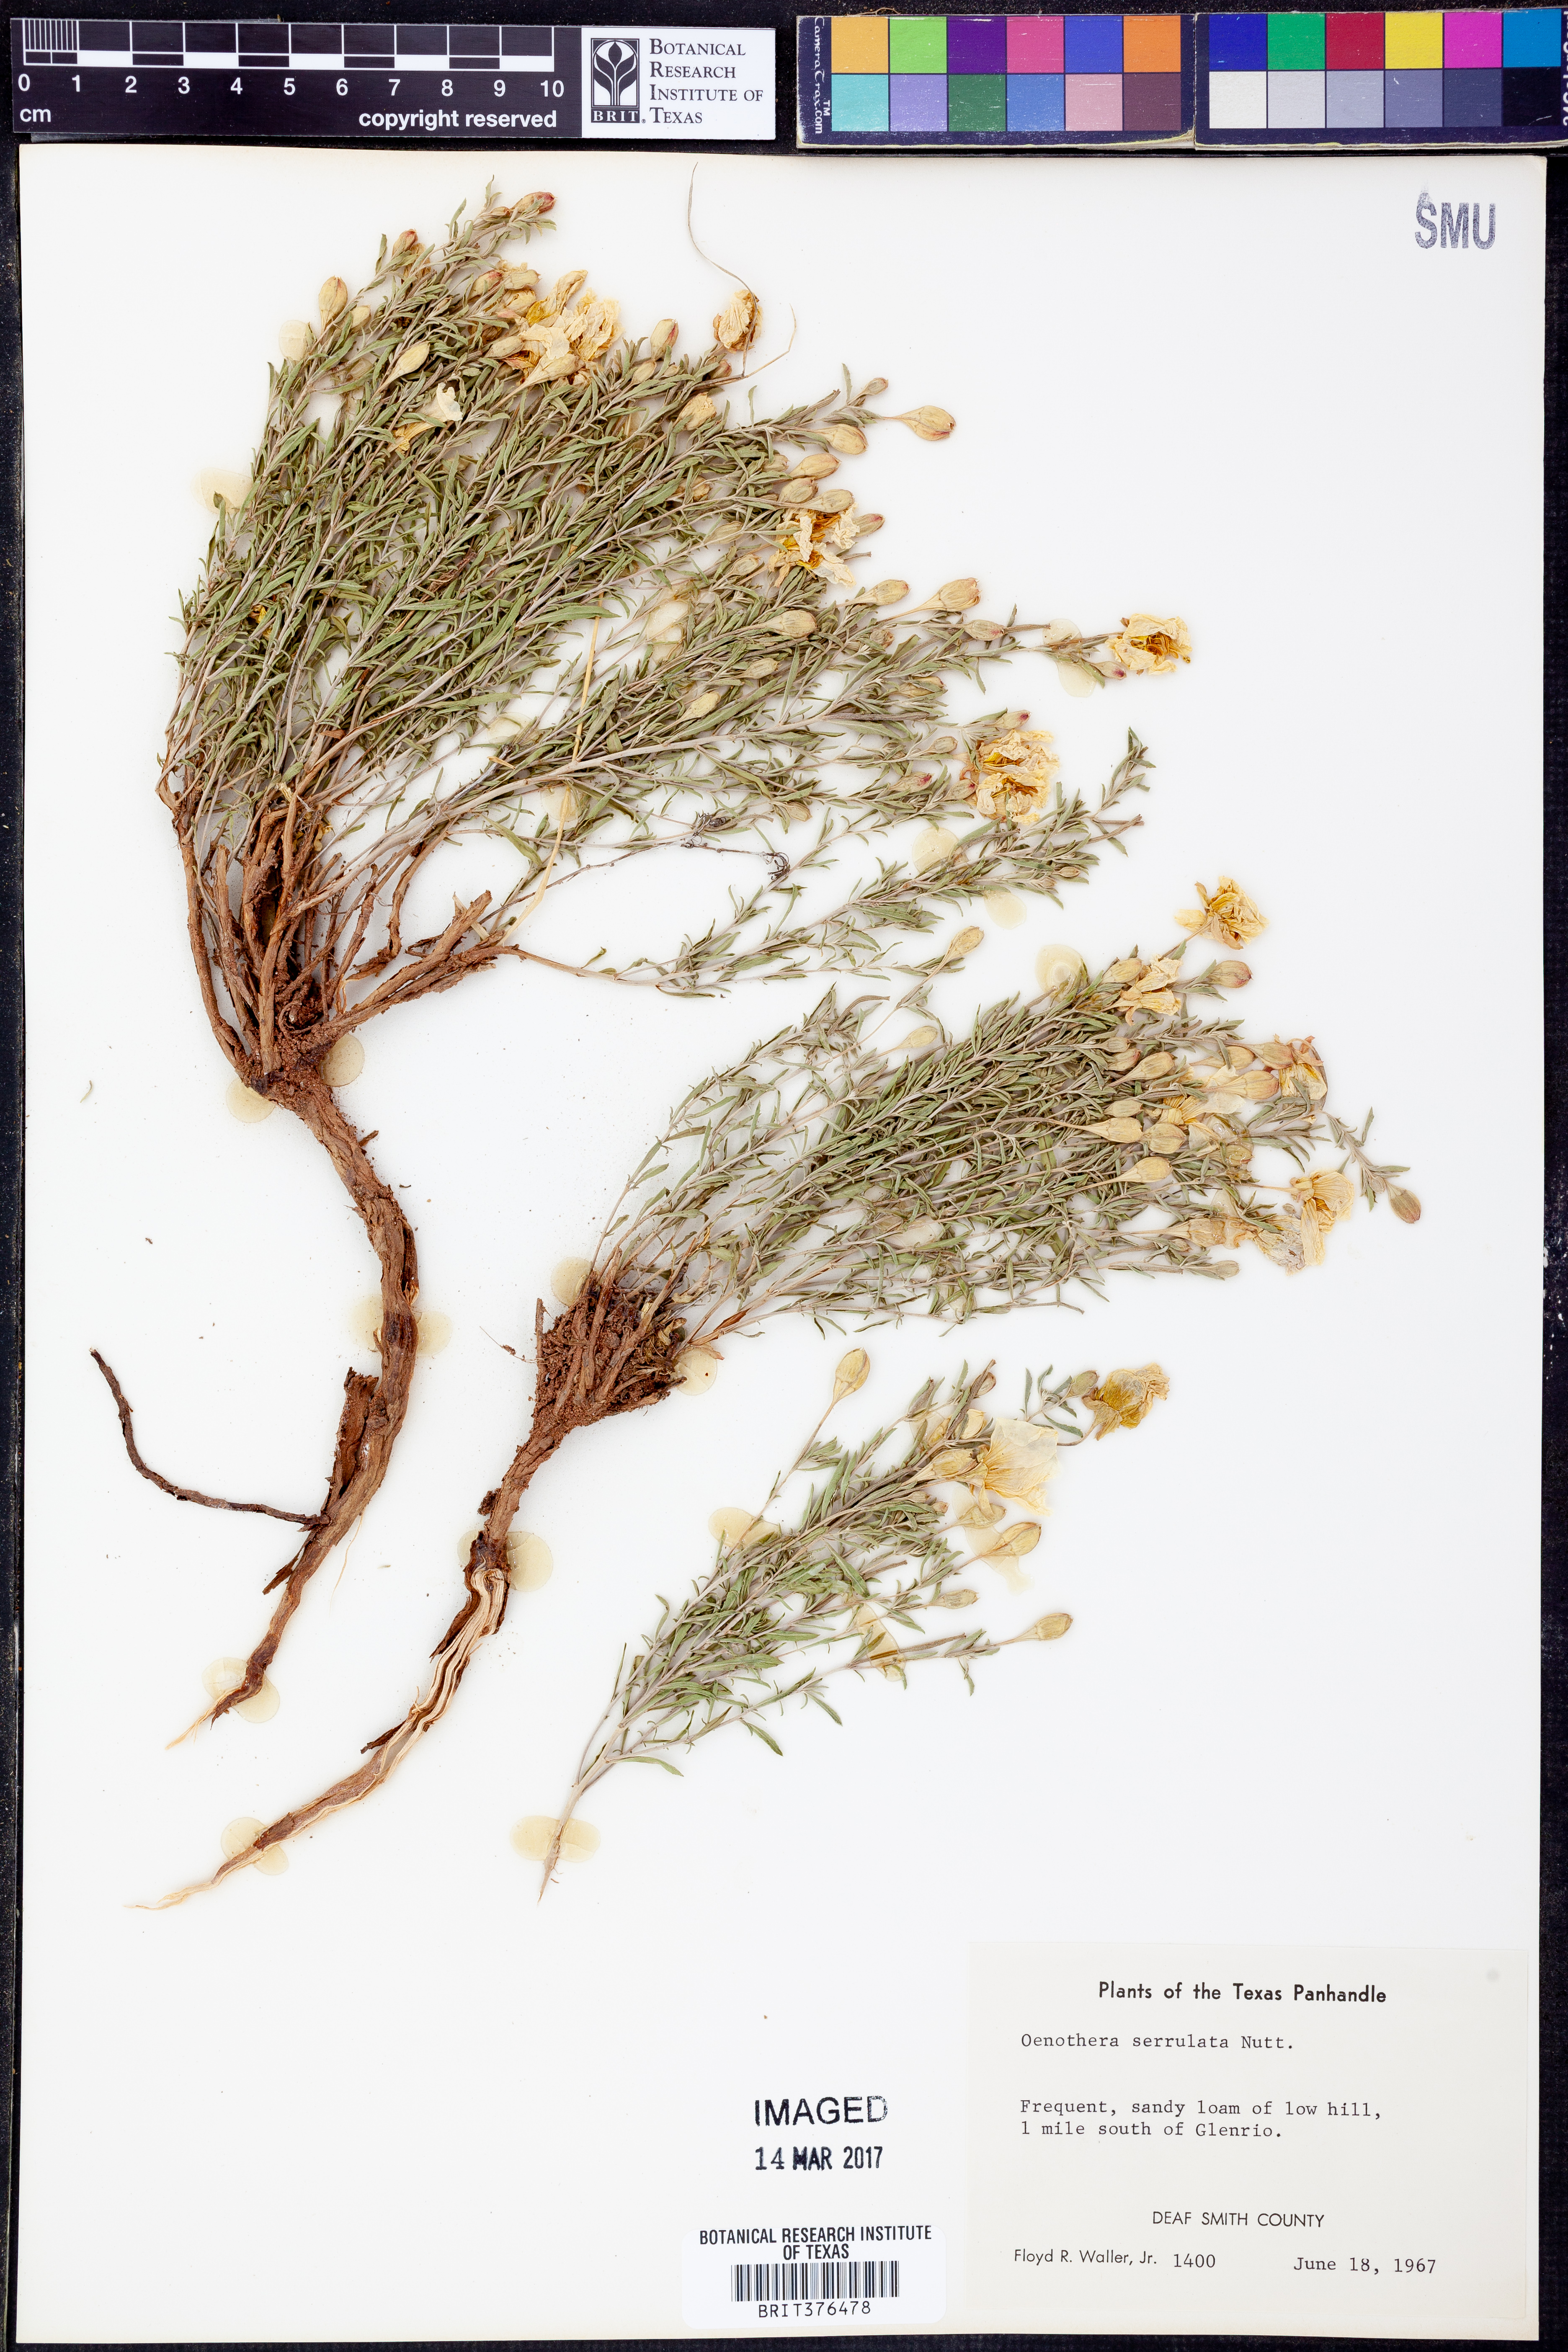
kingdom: Plantae
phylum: Tracheophyta
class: Magnoliopsida
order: Myrtales
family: Onagraceae
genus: Oenothera
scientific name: Oenothera serrulata
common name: Half-shrub calylophus
